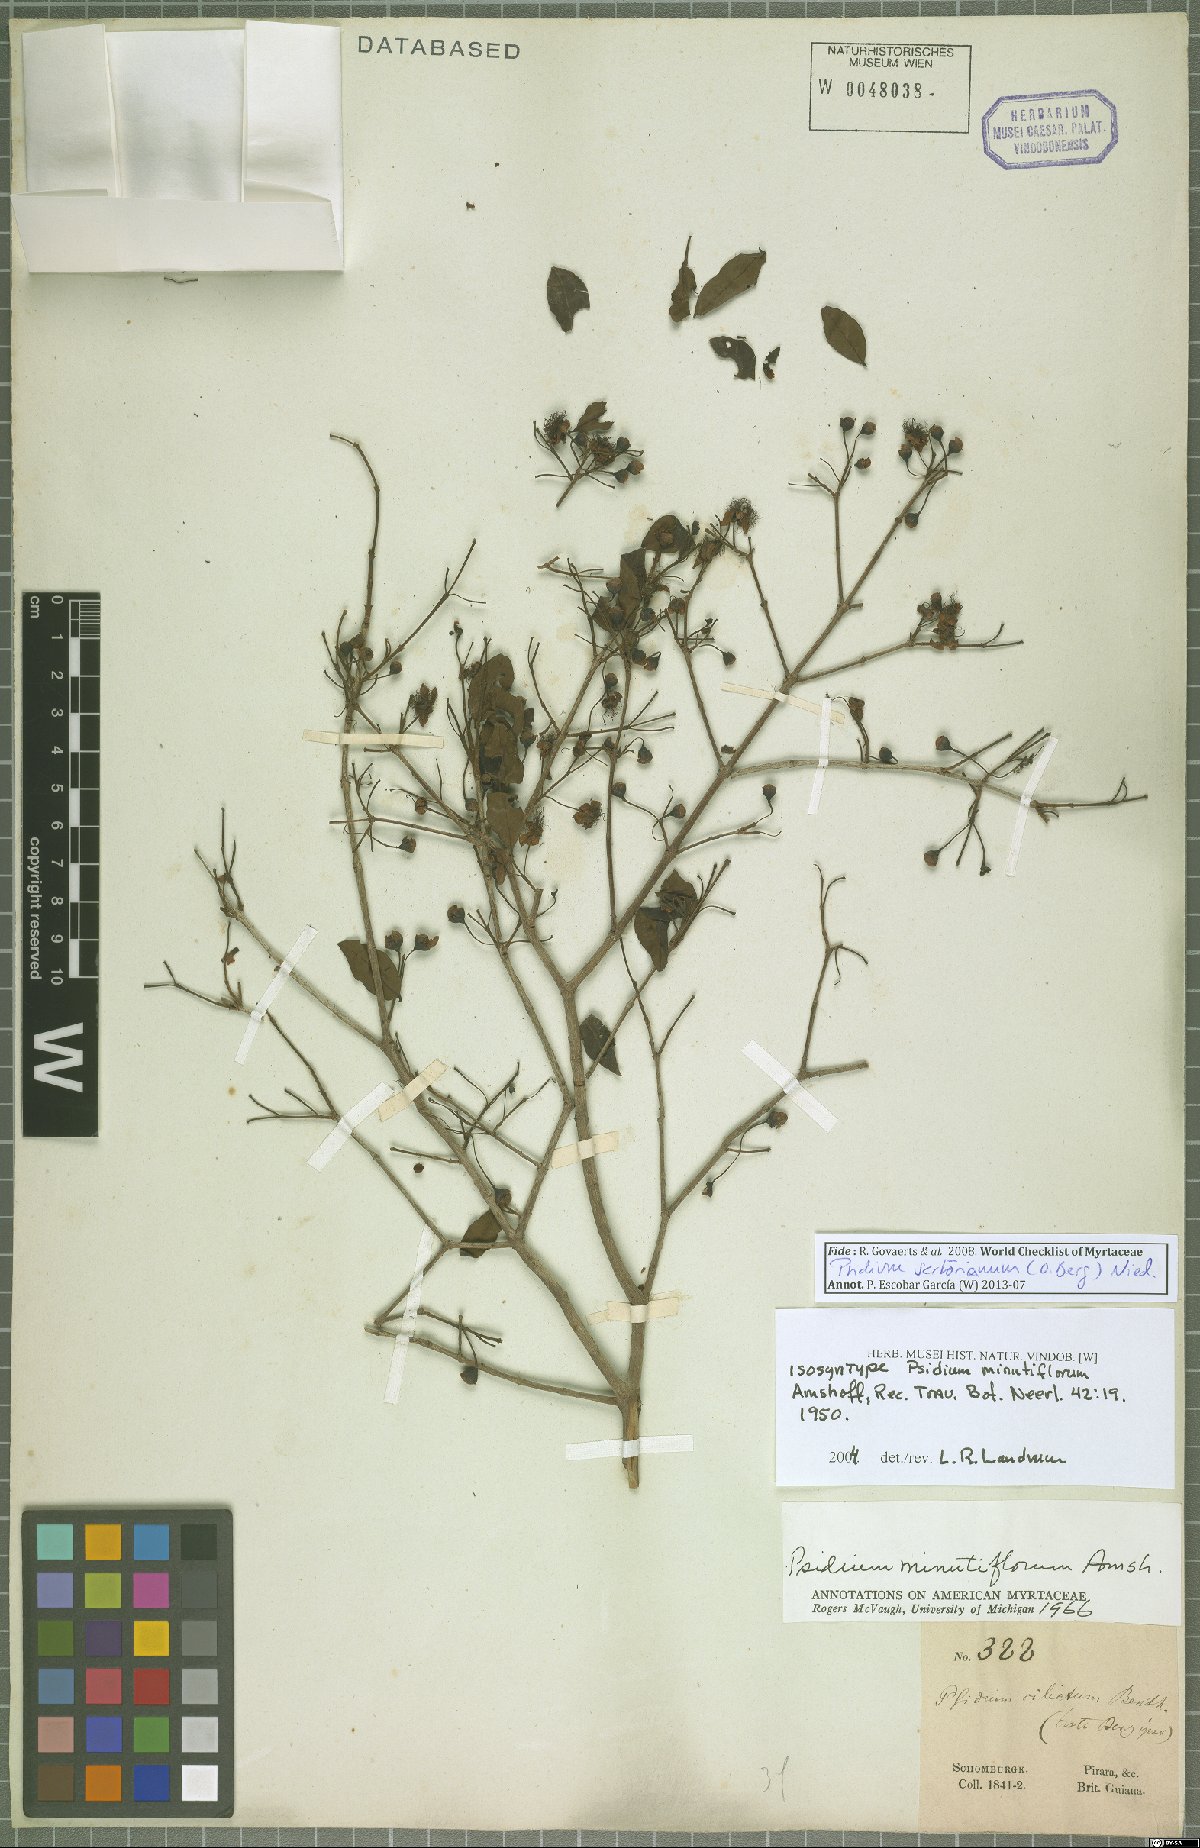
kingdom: Plantae
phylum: Tracheophyta
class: Magnoliopsida
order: Myrtales
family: Myrtaceae
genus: Psidium
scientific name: Psidium sartorianum
